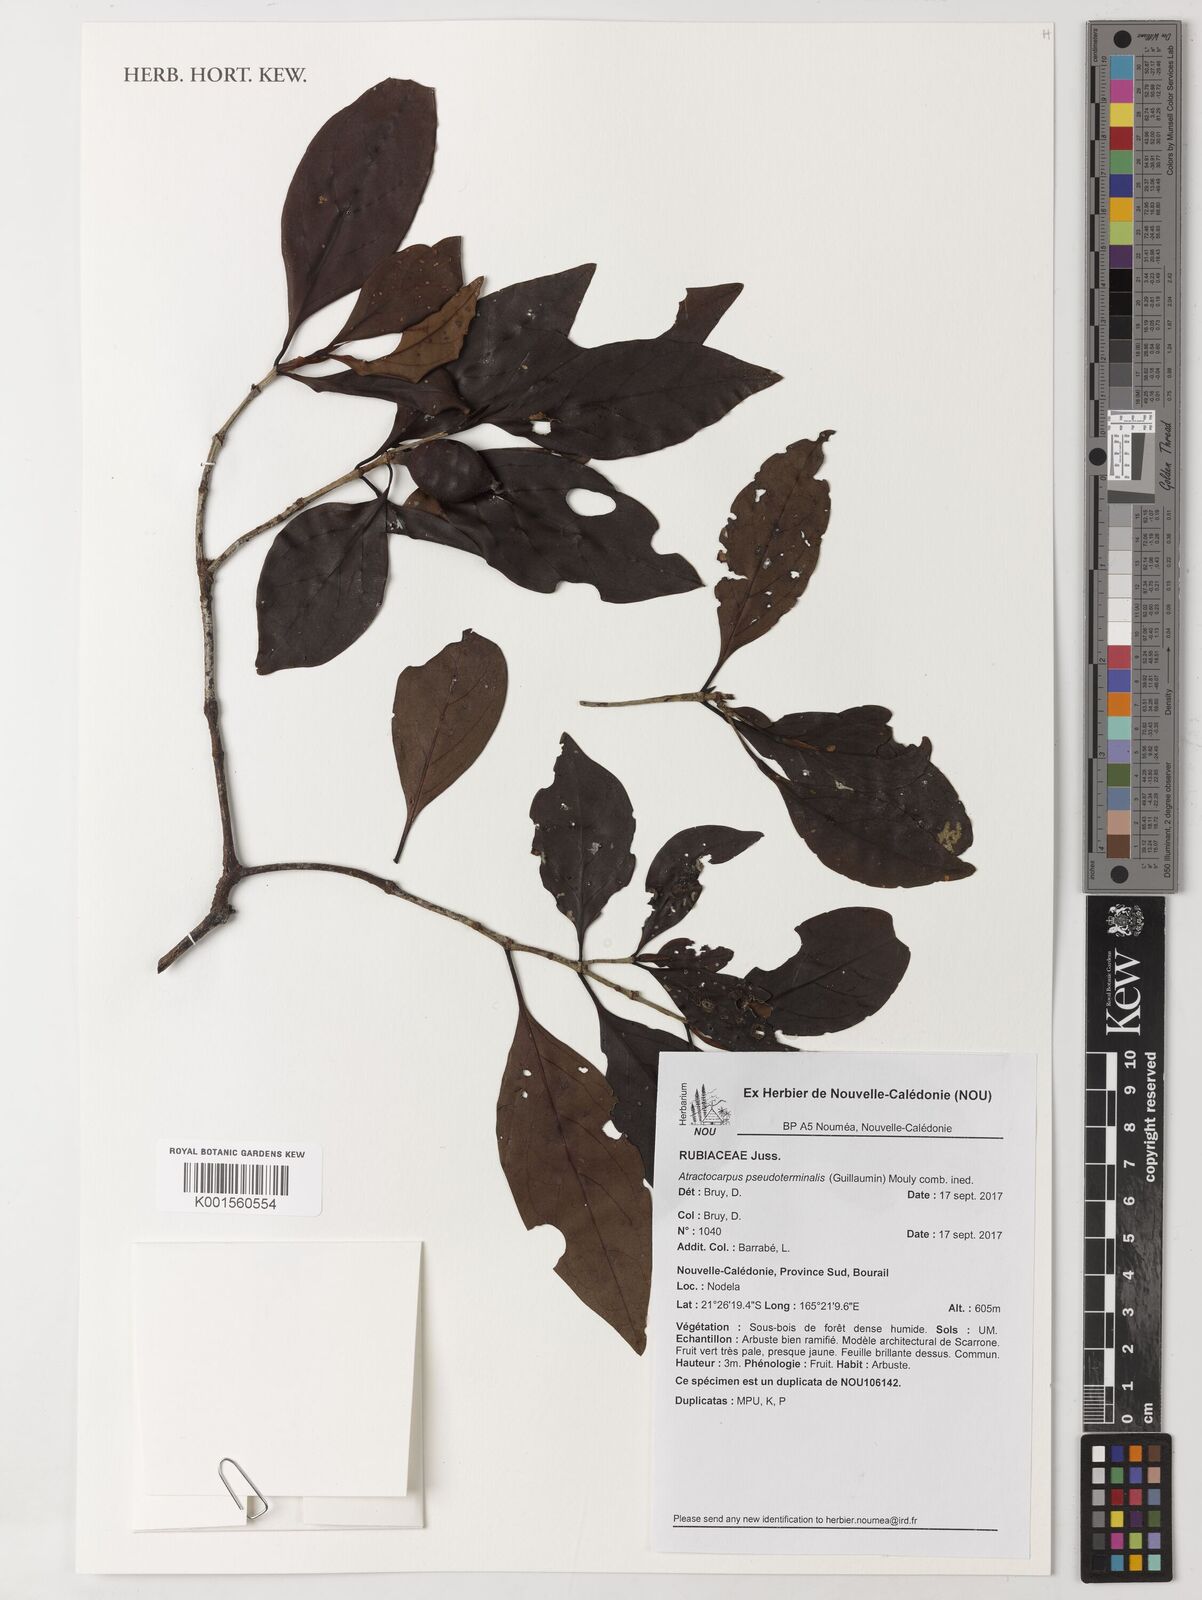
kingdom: Plantae
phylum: Tracheophyta
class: Magnoliopsida
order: Gentianales
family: Rubiaceae
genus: Atractocarpus
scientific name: Atractocarpus
